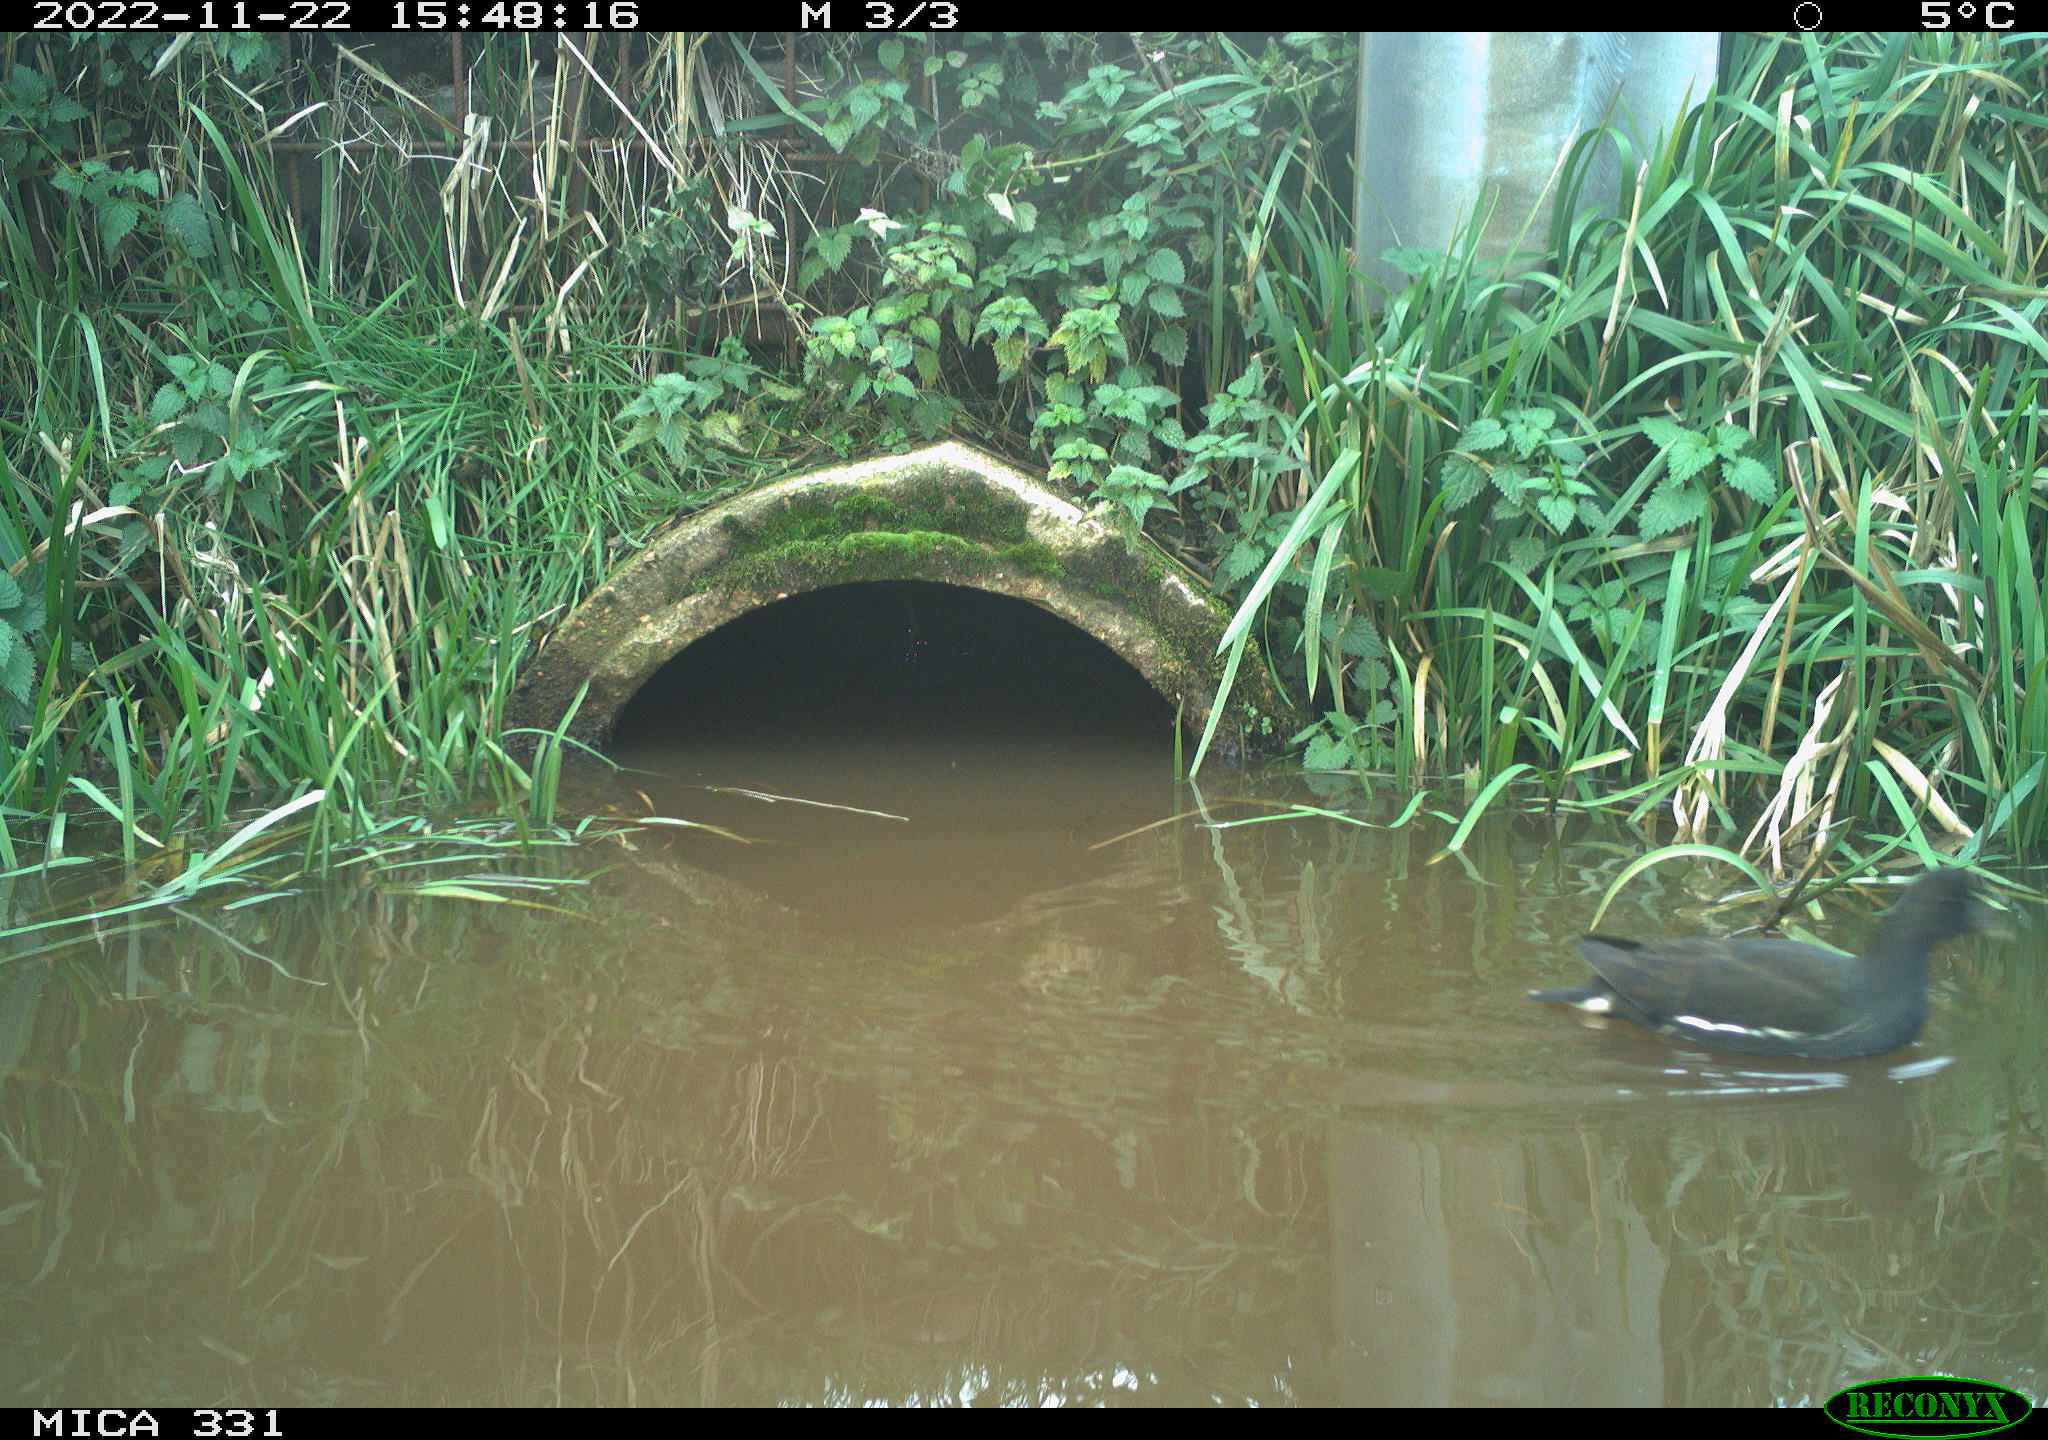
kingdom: Animalia
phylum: Chordata
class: Aves
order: Gruiformes
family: Rallidae
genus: Gallinula
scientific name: Gallinula chloropus
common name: Common moorhen
